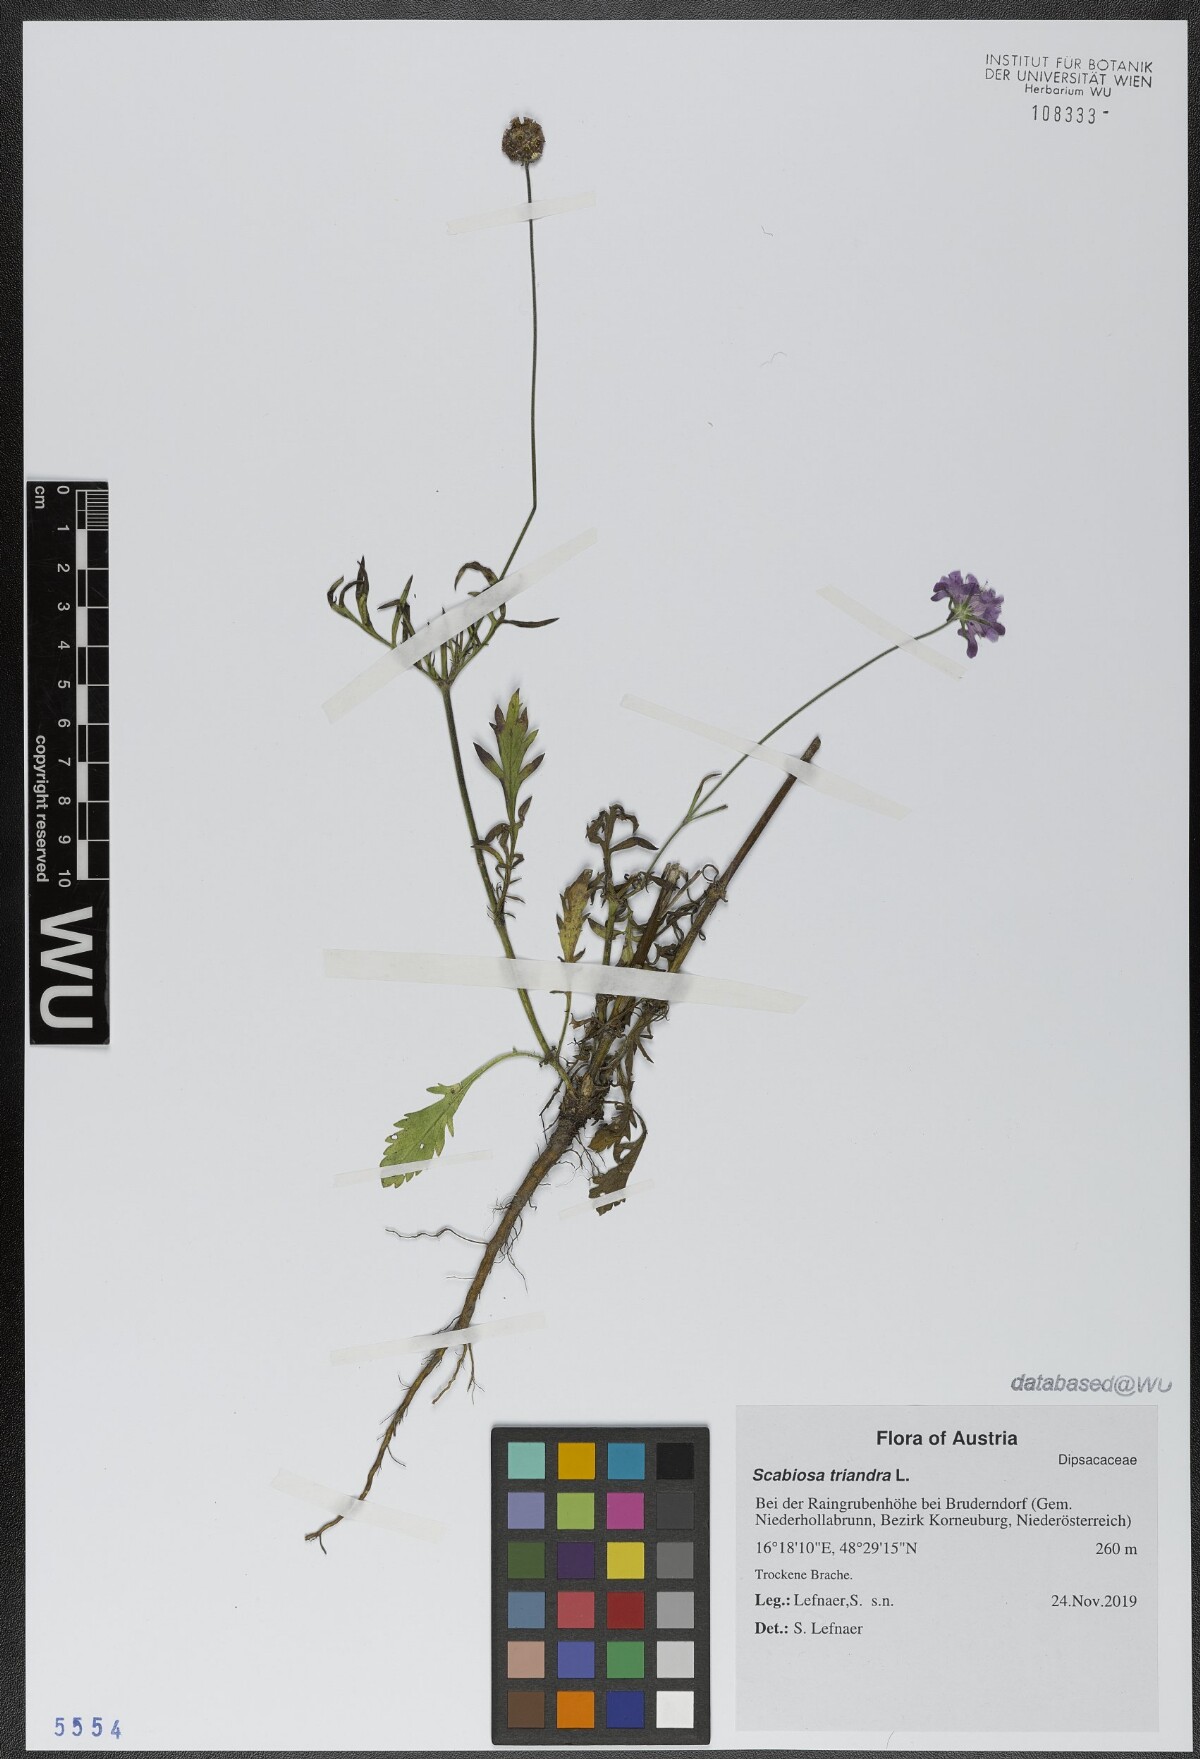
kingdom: Plantae
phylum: Tracheophyta
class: Magnoliopsida
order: Dipsacales
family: Caprifoliaceae
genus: Scabiosa
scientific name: Scabiosa triandra
